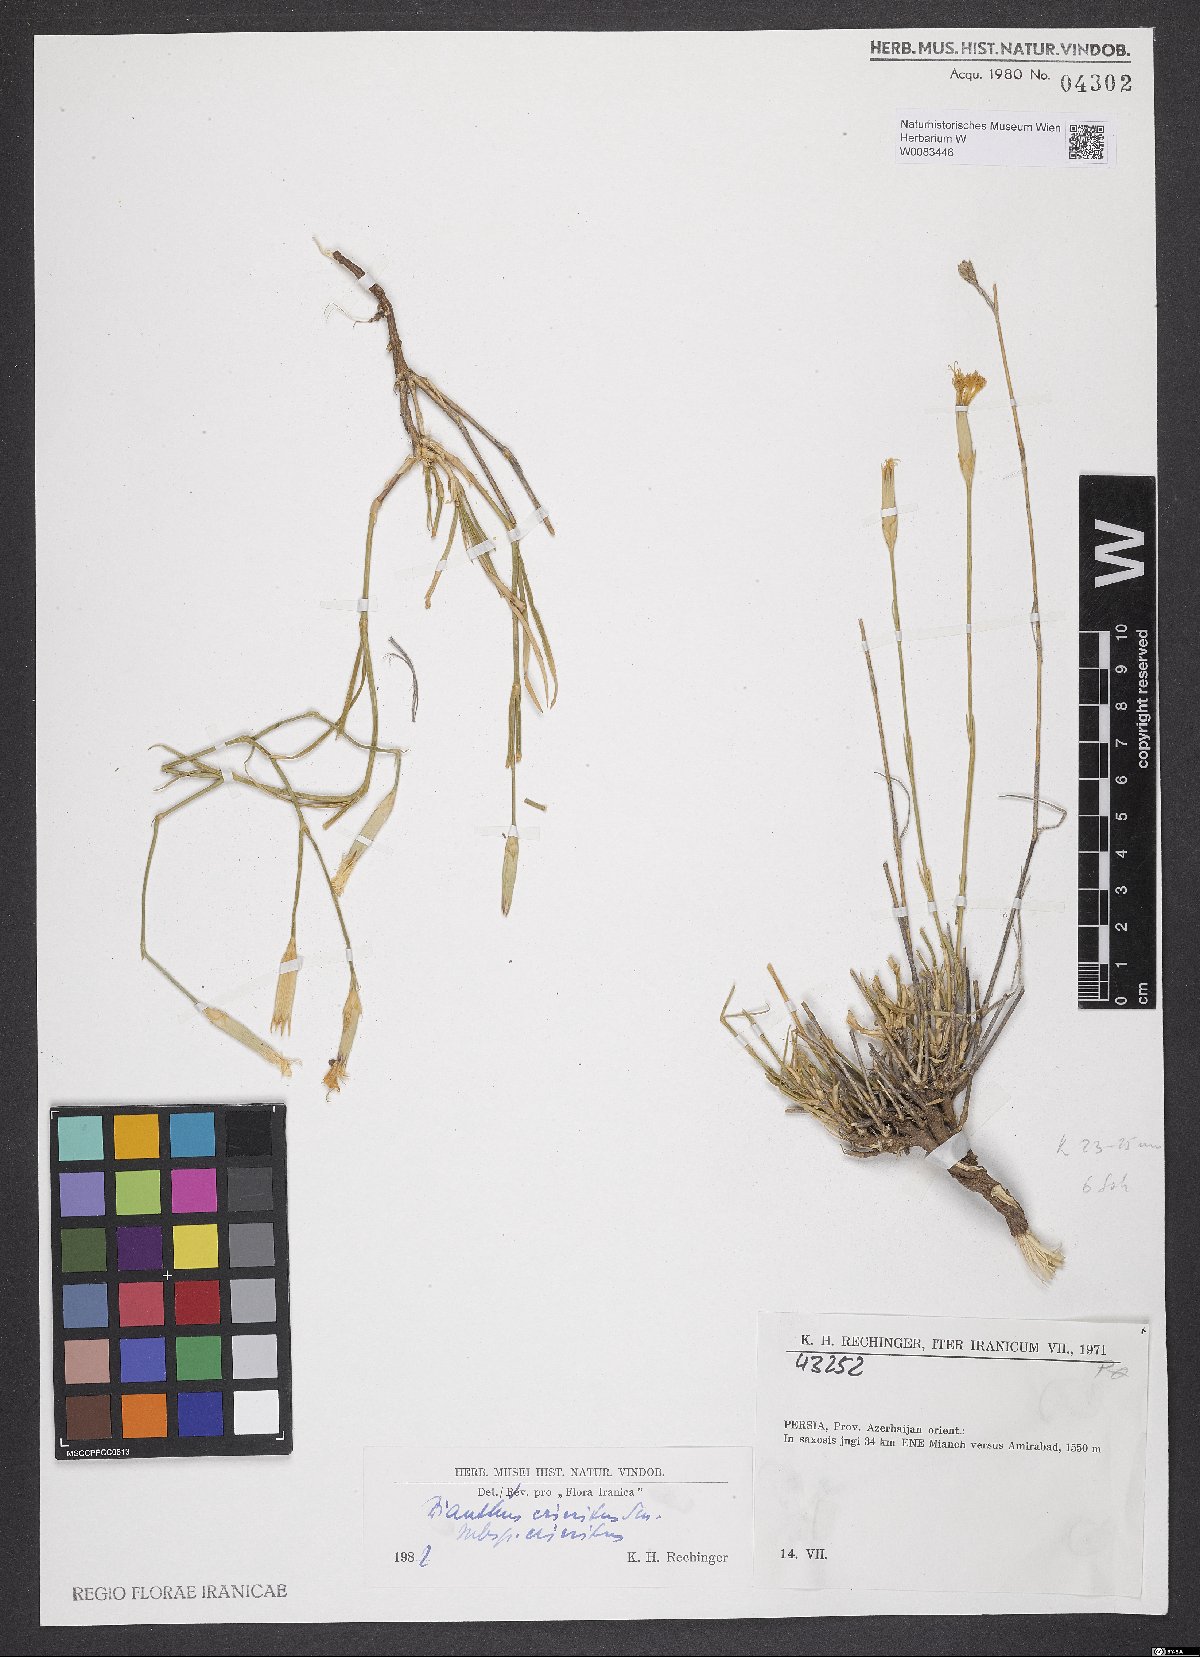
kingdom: Plantae
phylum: Tracheophyta
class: Magnoliopsida
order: Caryophyllales
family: Caryophyllaceae
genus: Dianthus
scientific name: Dianthus crinitus
